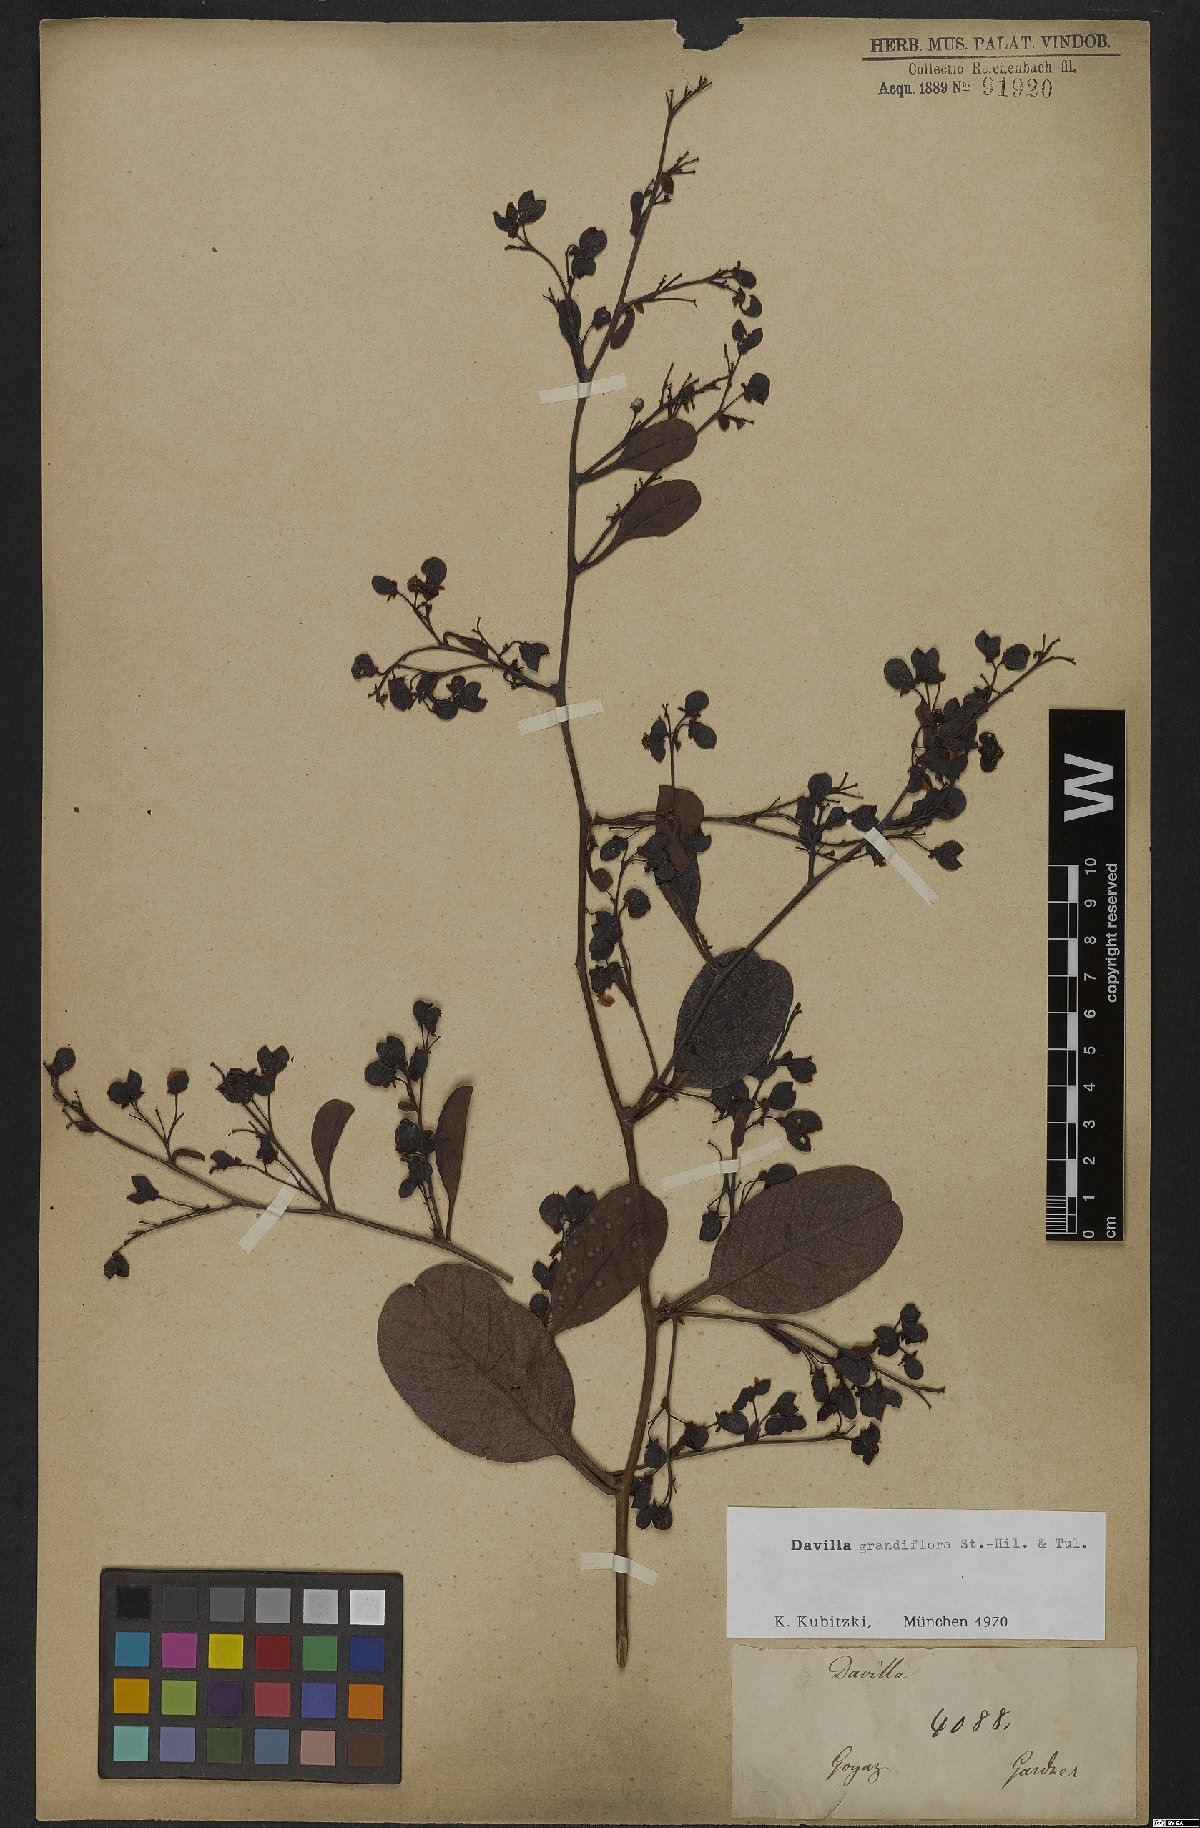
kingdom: Plantae
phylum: Tracheophyta
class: Magnoliopsida
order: Dilleniales
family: Dilleniaceae
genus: Davilla
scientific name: Davilla grandiflora
